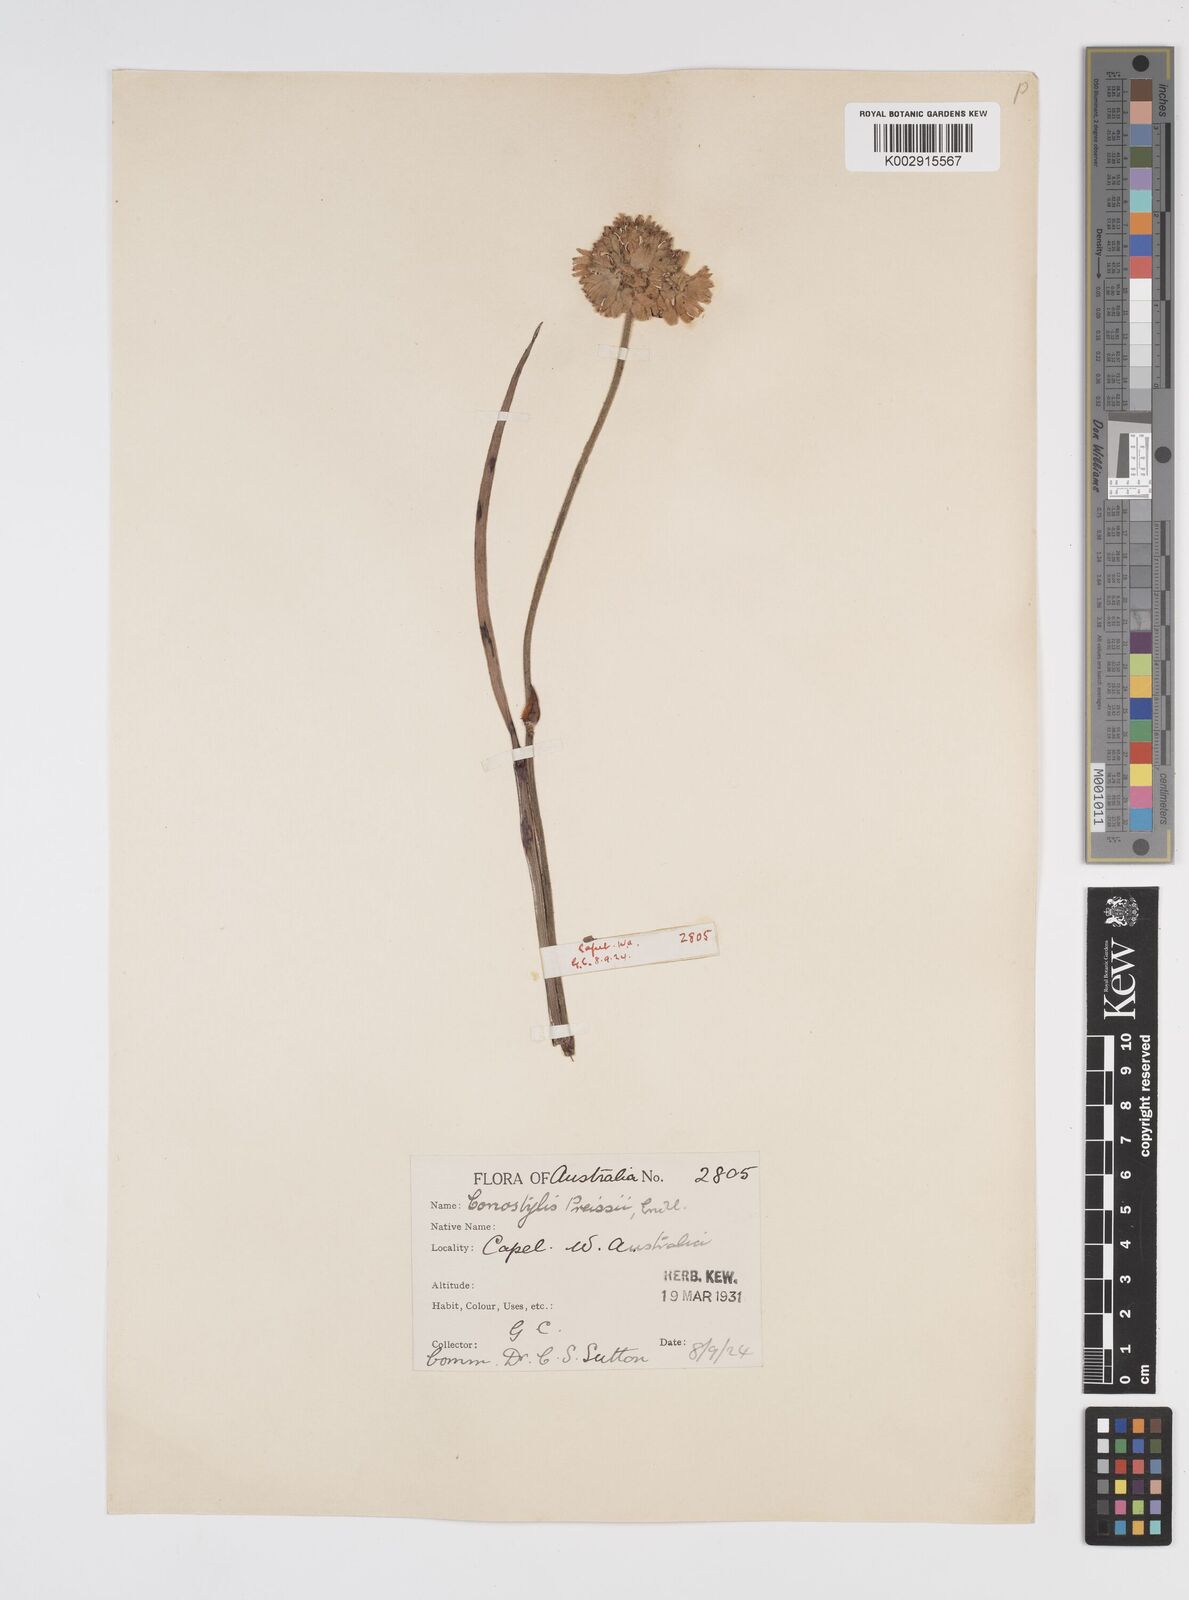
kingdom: Plantae
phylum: Tracheophyta
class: Liliopsida
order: Commelinales
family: Haemodoraceae
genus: Conostylis
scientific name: Conostylis aculeata
